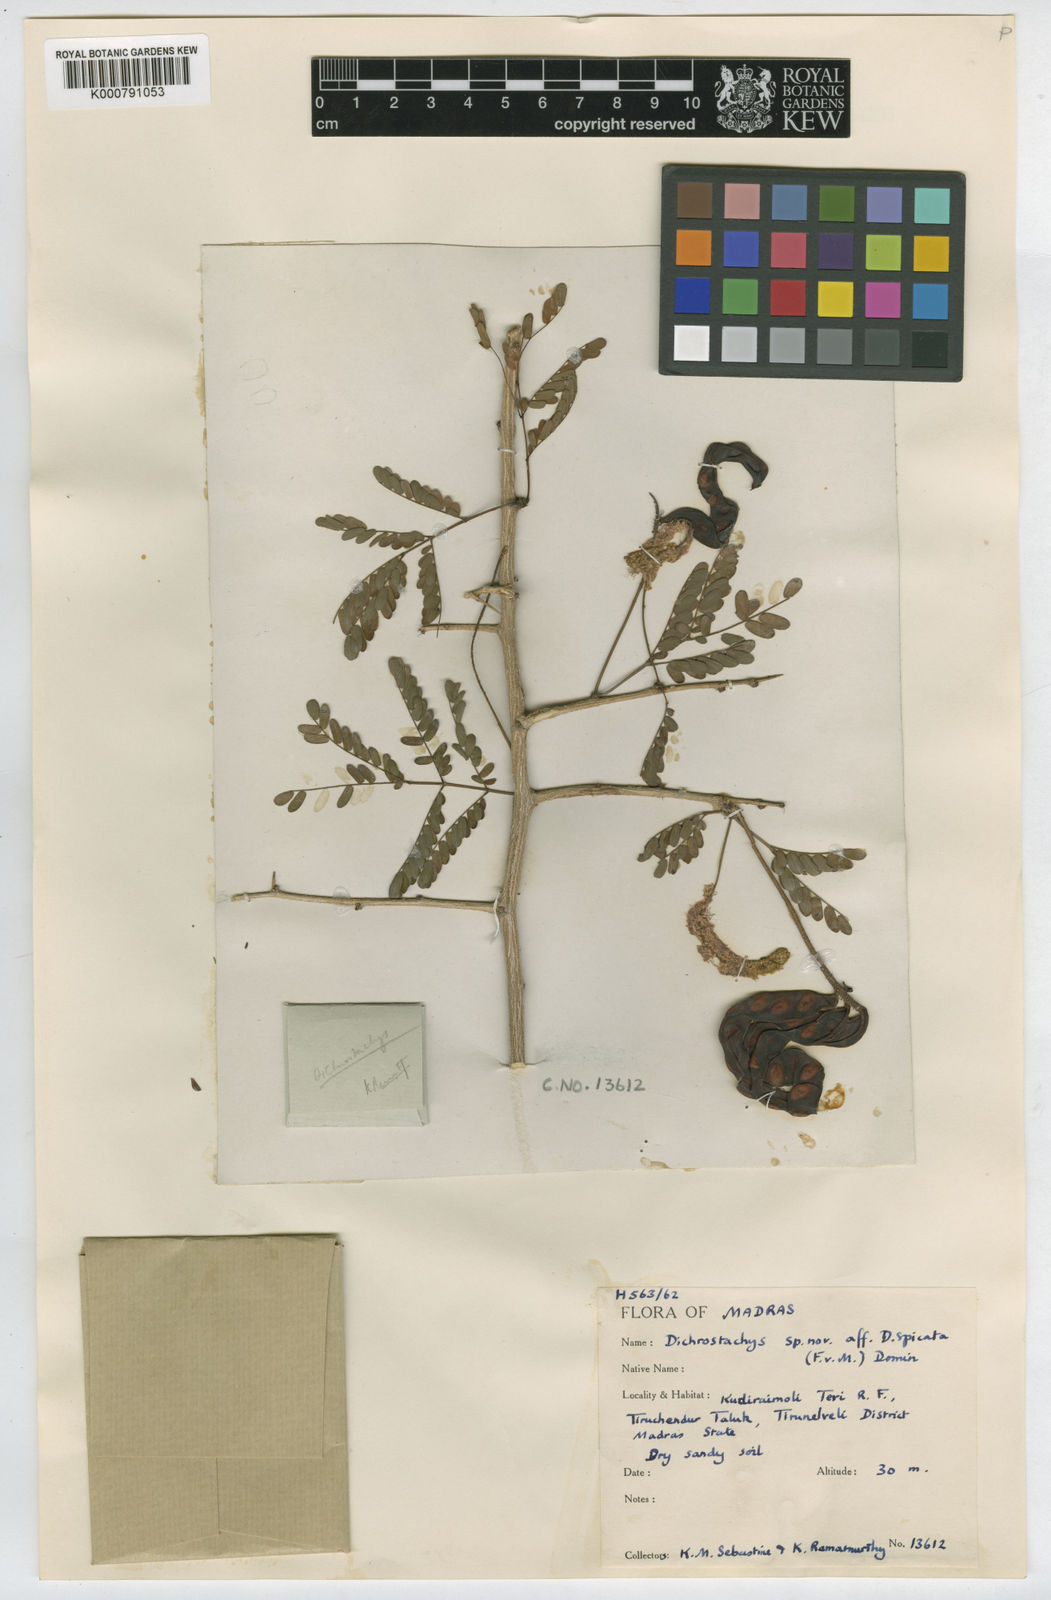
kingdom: Plantae
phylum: Tracheophyta
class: Magnoliopsida
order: Fabales
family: Fabaceae
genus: Dichrostachys
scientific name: Dichrostachys cinerea
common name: Sicklebush
